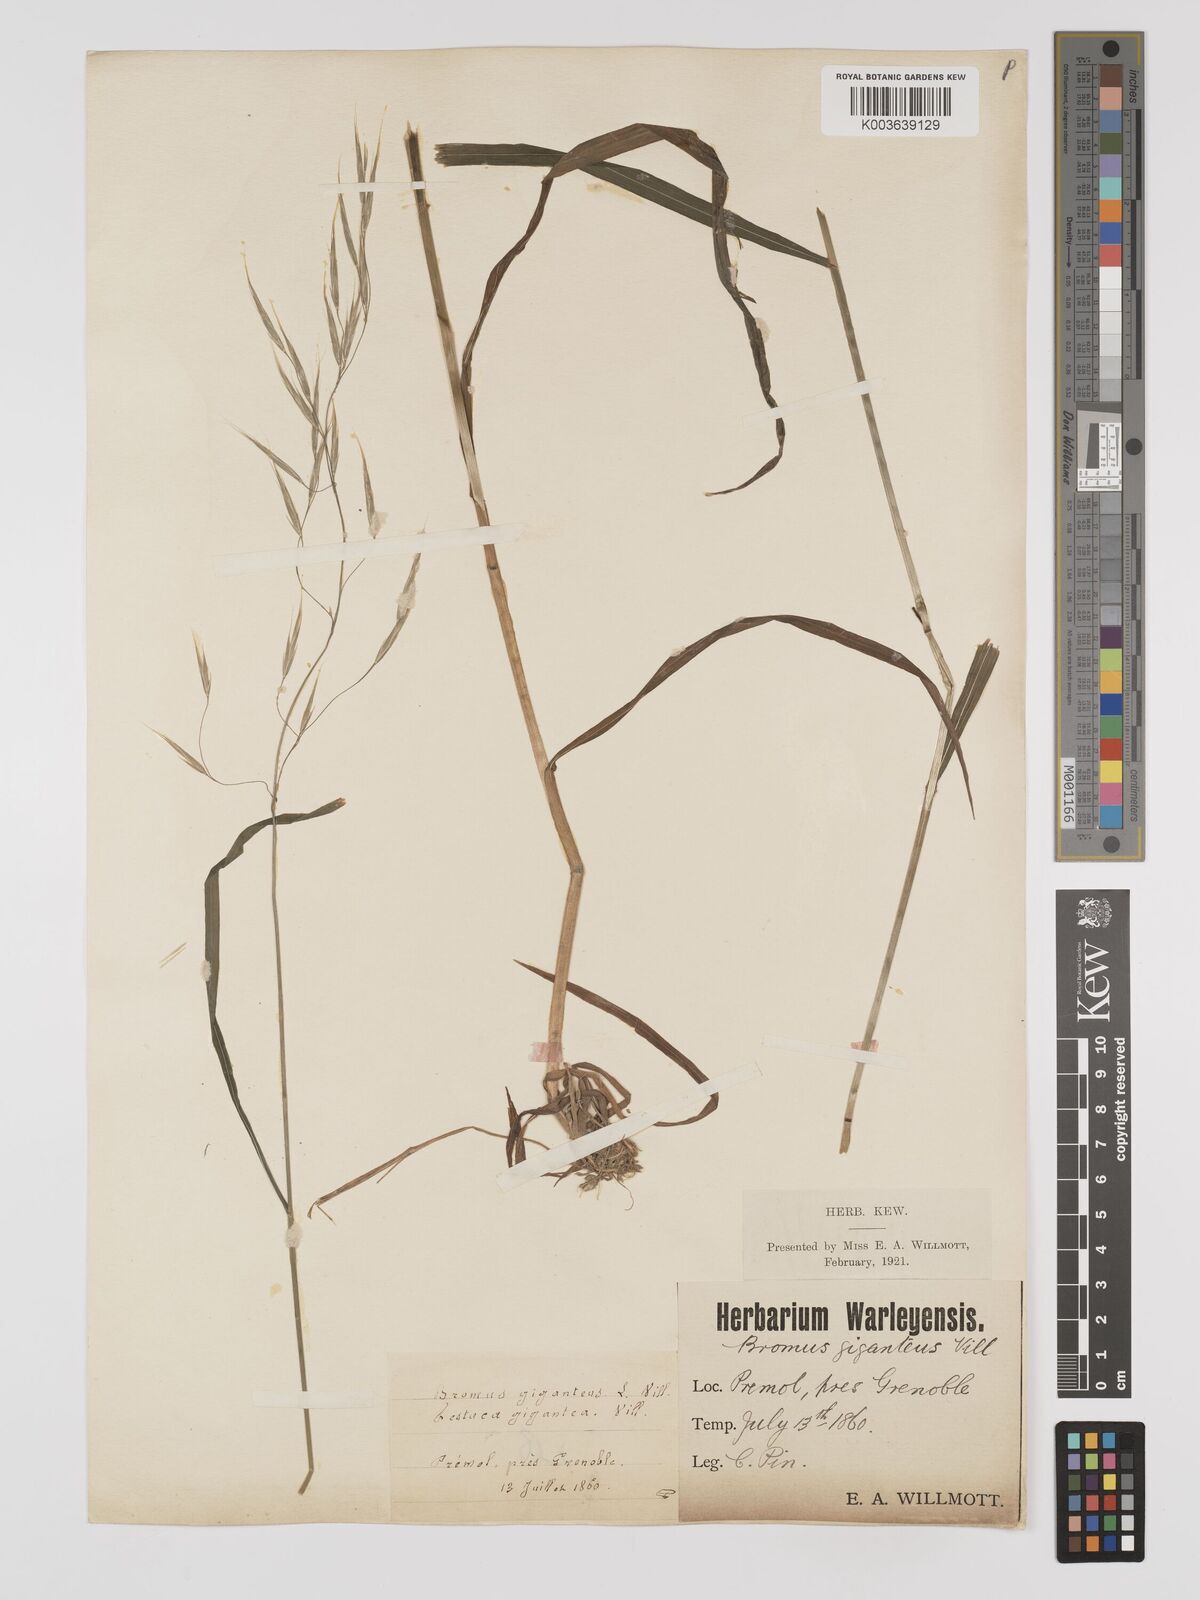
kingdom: Plantae
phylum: Tracheophyta
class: Liliopsida
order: Poales
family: Poaceae
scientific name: Poaceae
